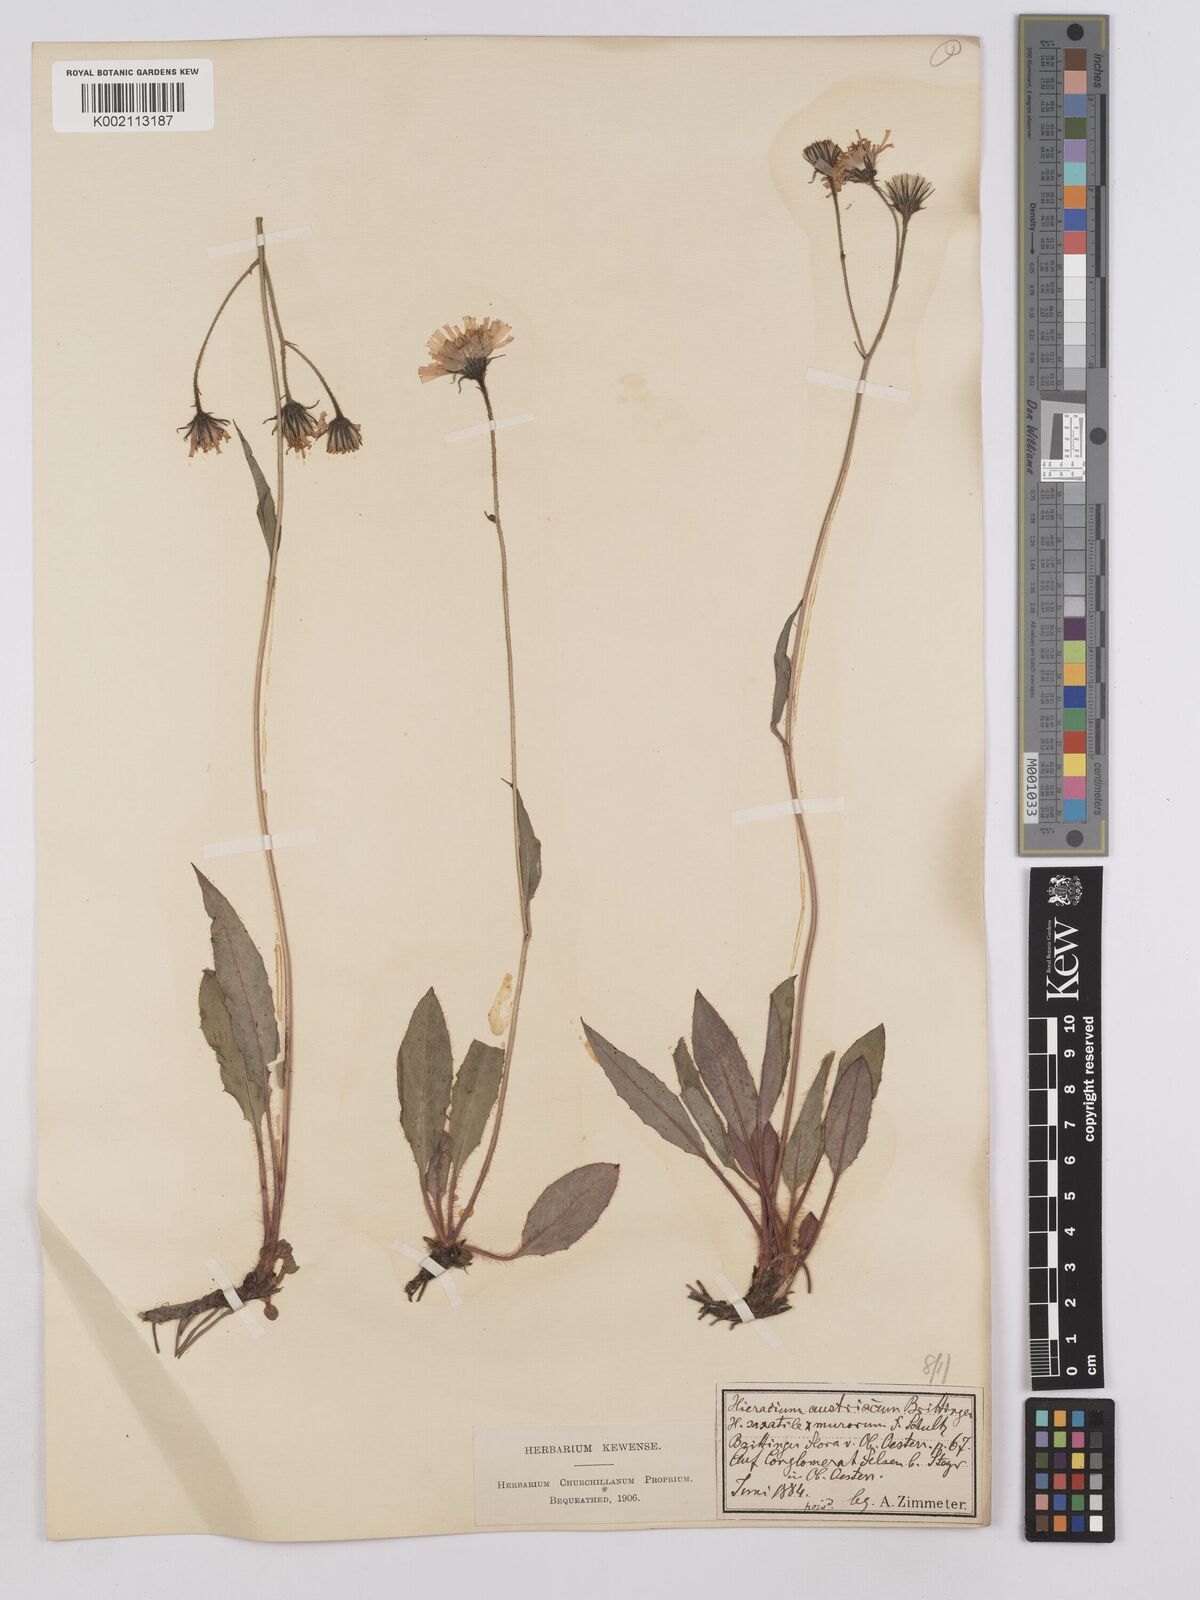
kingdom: Plantae
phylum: Tracheophyta
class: Magnoliopsida
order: Asterales
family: Asteraceae
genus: Crepis
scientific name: Crepis blattarioides
